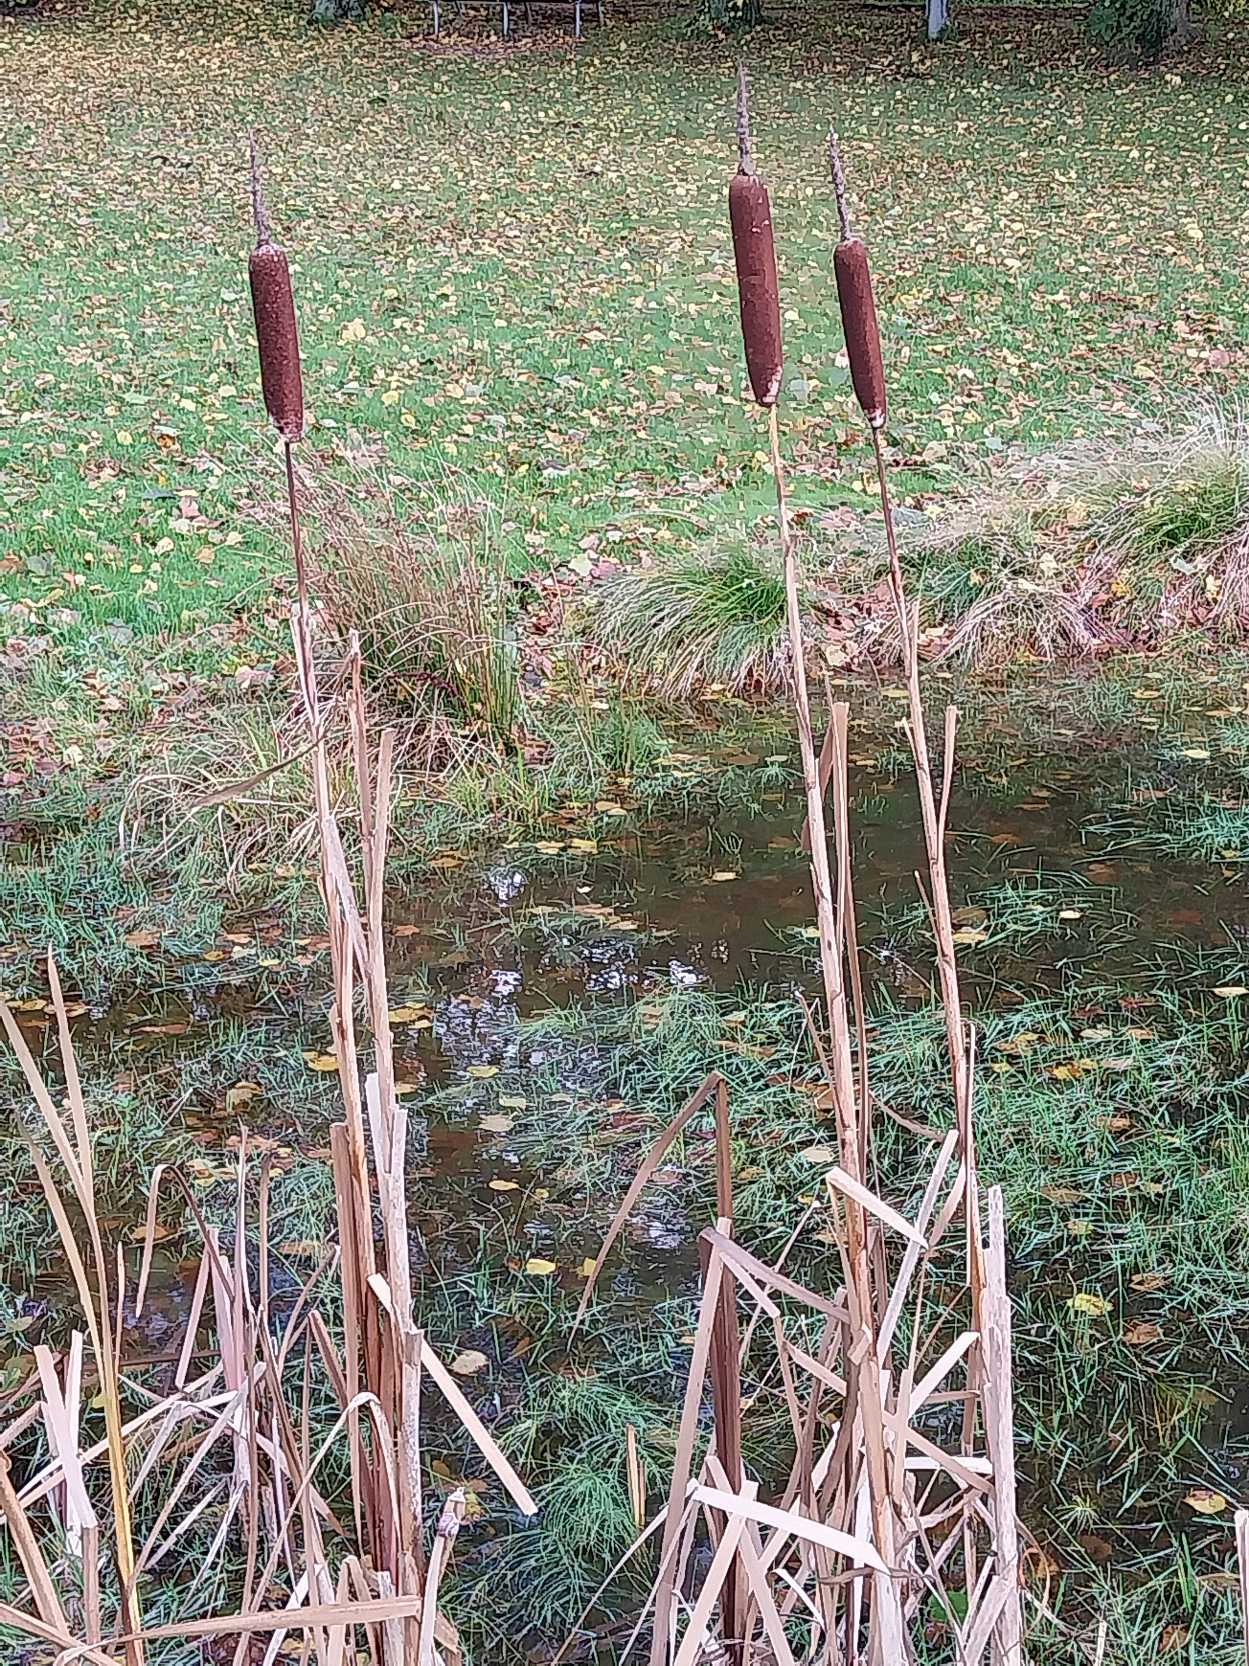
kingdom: Plantae
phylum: Tracheophyta
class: Liliopsida
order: Poales
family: Typhaceae
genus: Typha
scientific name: Typha latifolia
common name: Bredbladet dunhammer
